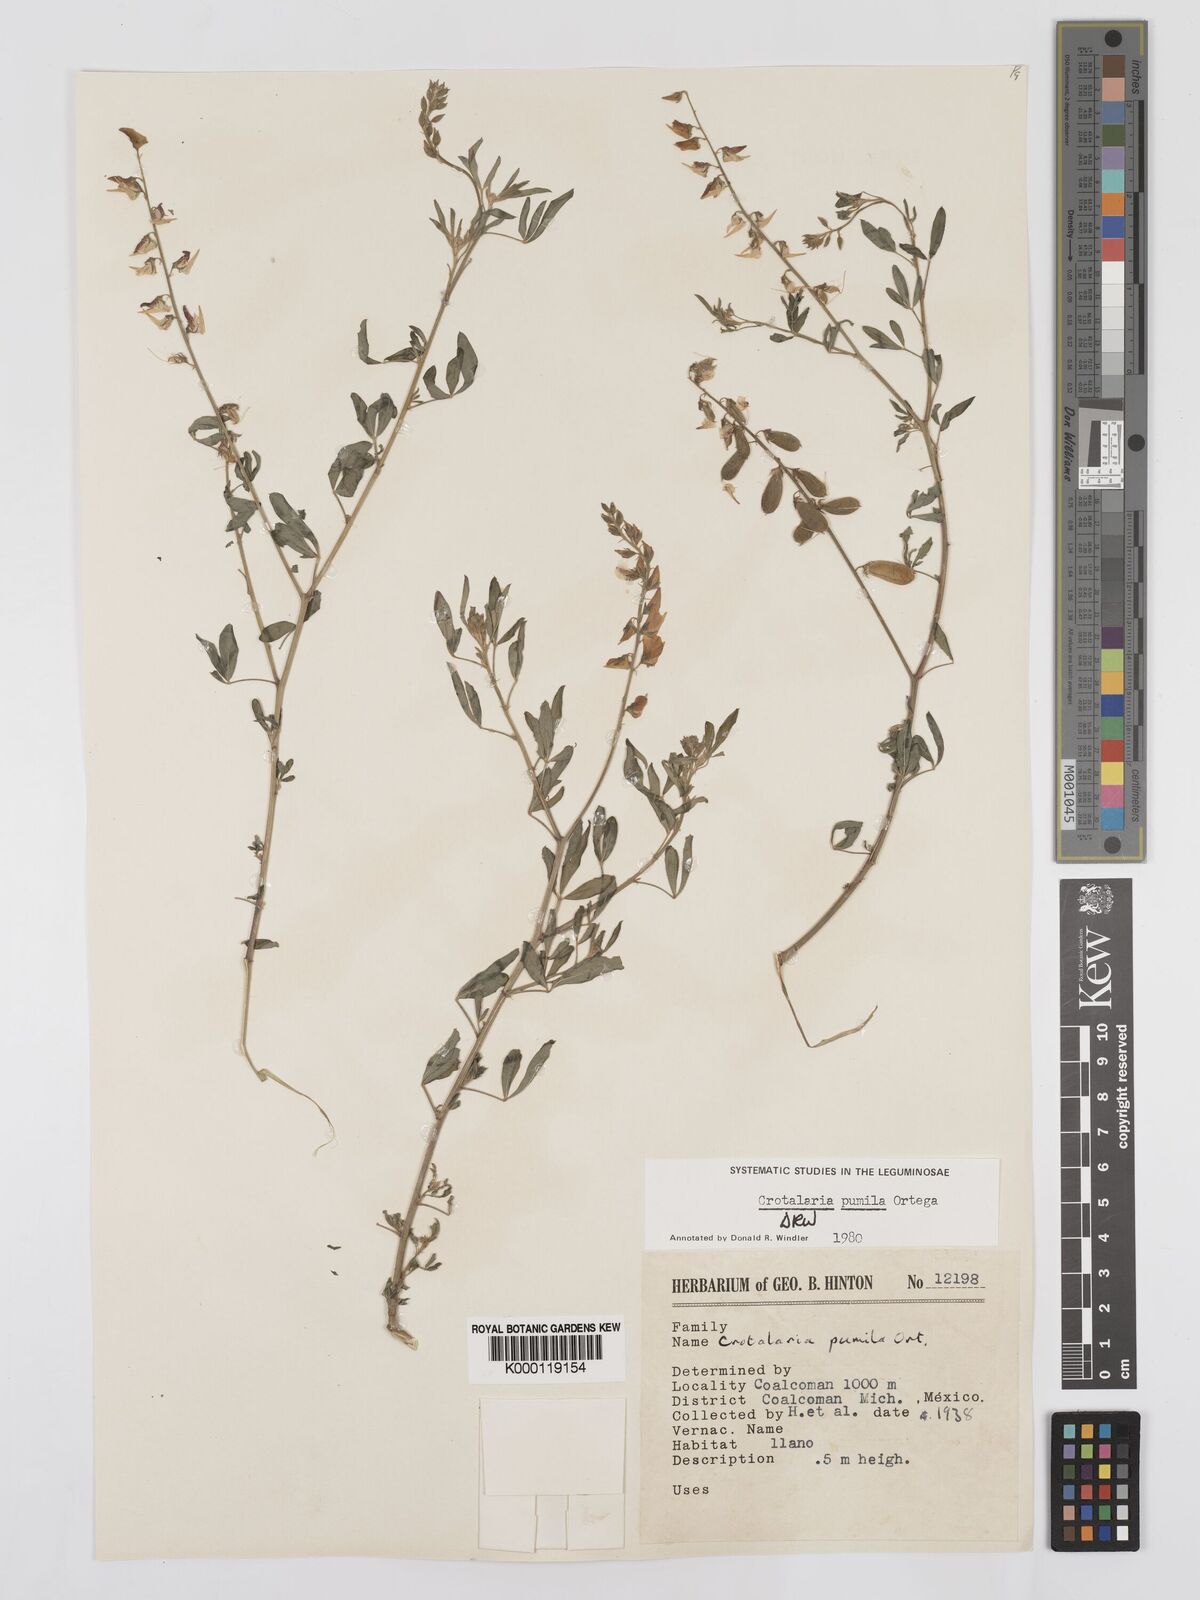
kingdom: Plantae
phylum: Tracheophyta
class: Magnoliopsida
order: Fabales
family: Fabaceae
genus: Crotalaria
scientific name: Crotalaria pumila
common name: Low rattlebox
